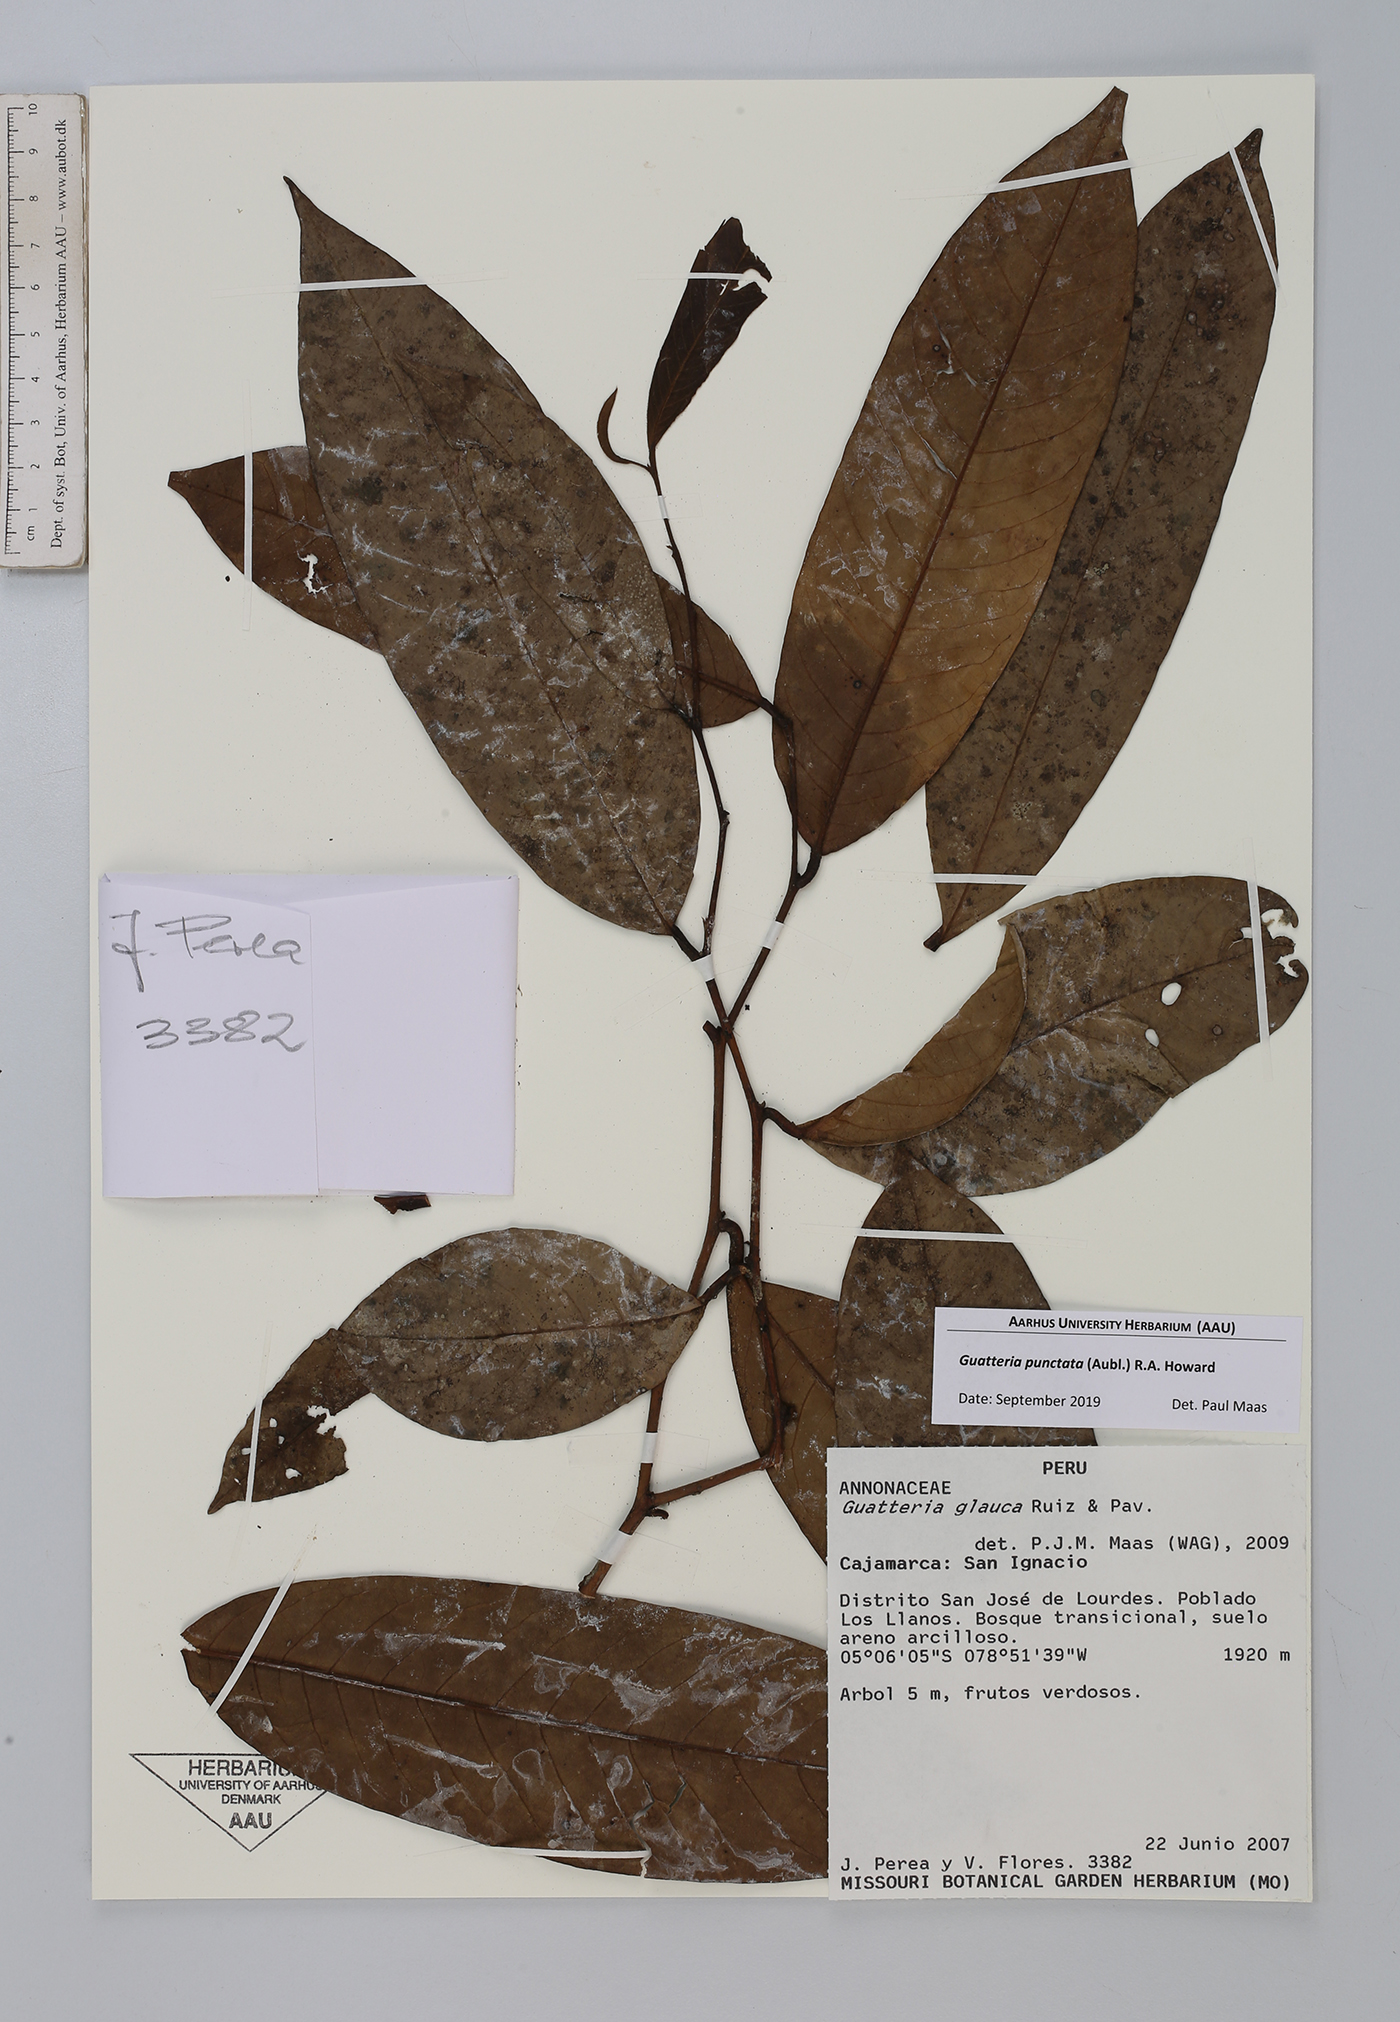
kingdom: Plantae
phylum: Tracheophyta
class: Magnoliopsida
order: Magnoliales
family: Annonaceae
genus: Guatteria
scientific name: Guatteria punctata
